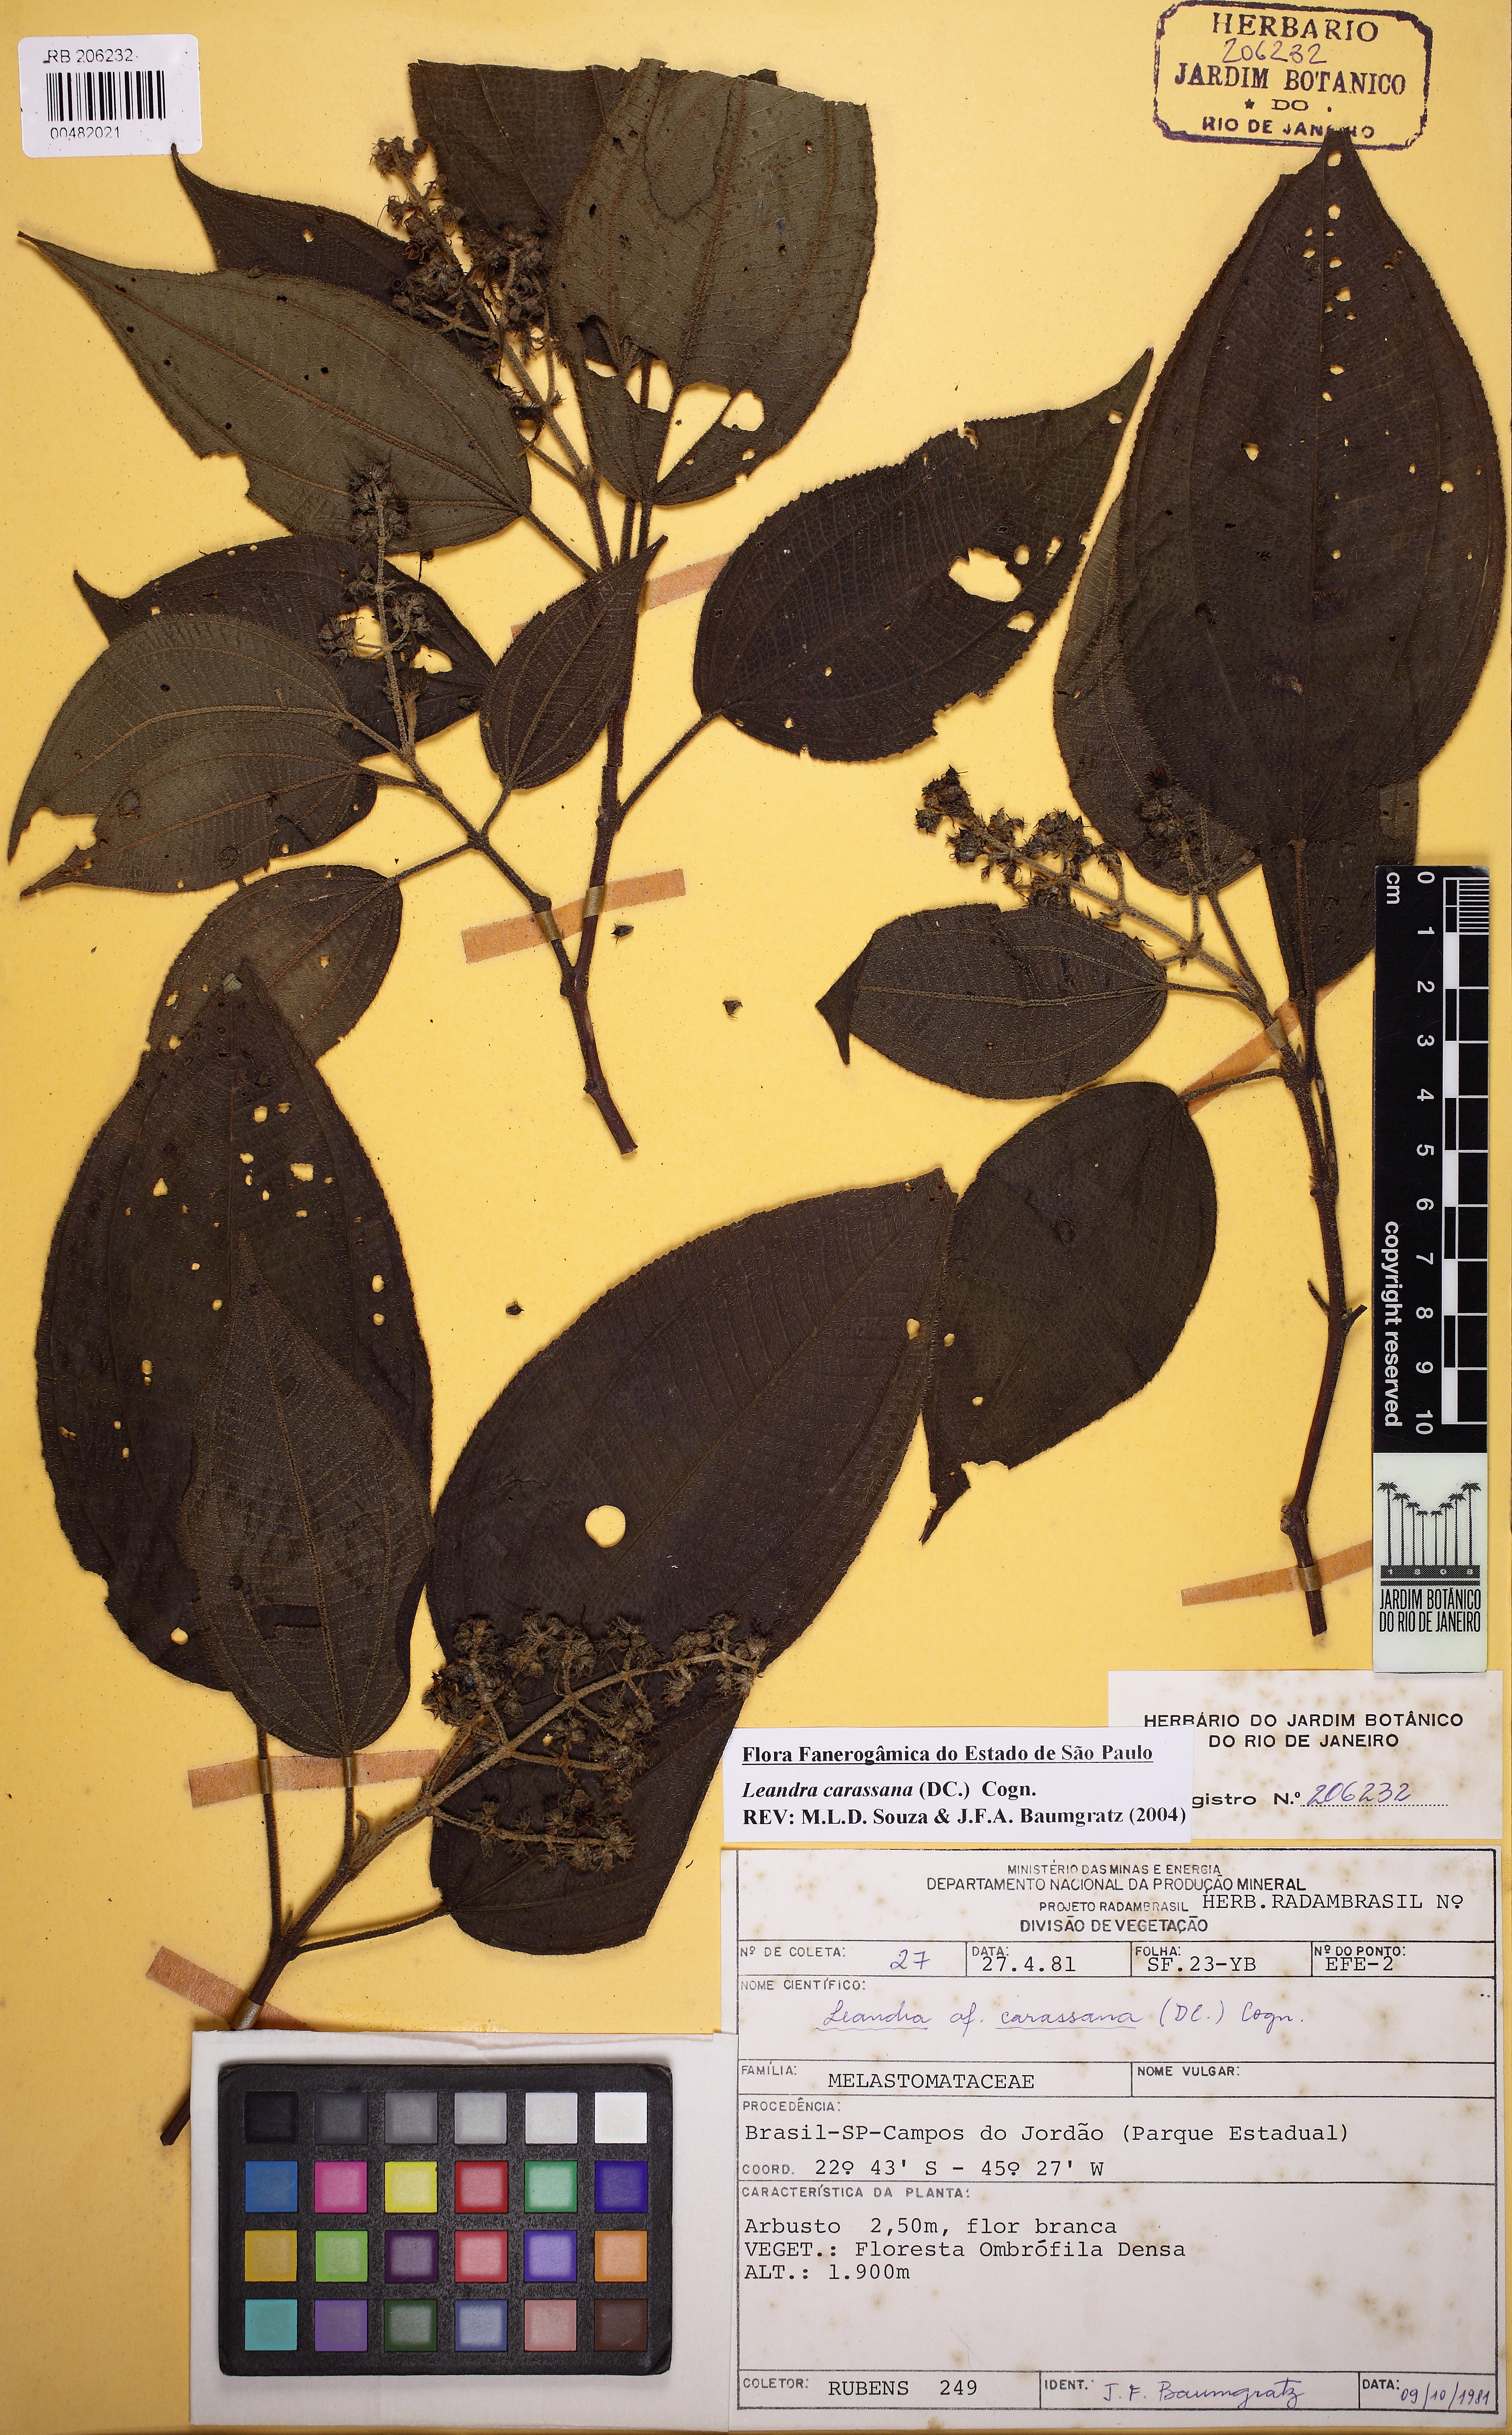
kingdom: Plantae
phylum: Tracheophyta
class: Magnoliopsida
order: Myrtales
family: Melastomataceae
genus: Miconia
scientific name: Miconia sublanata
